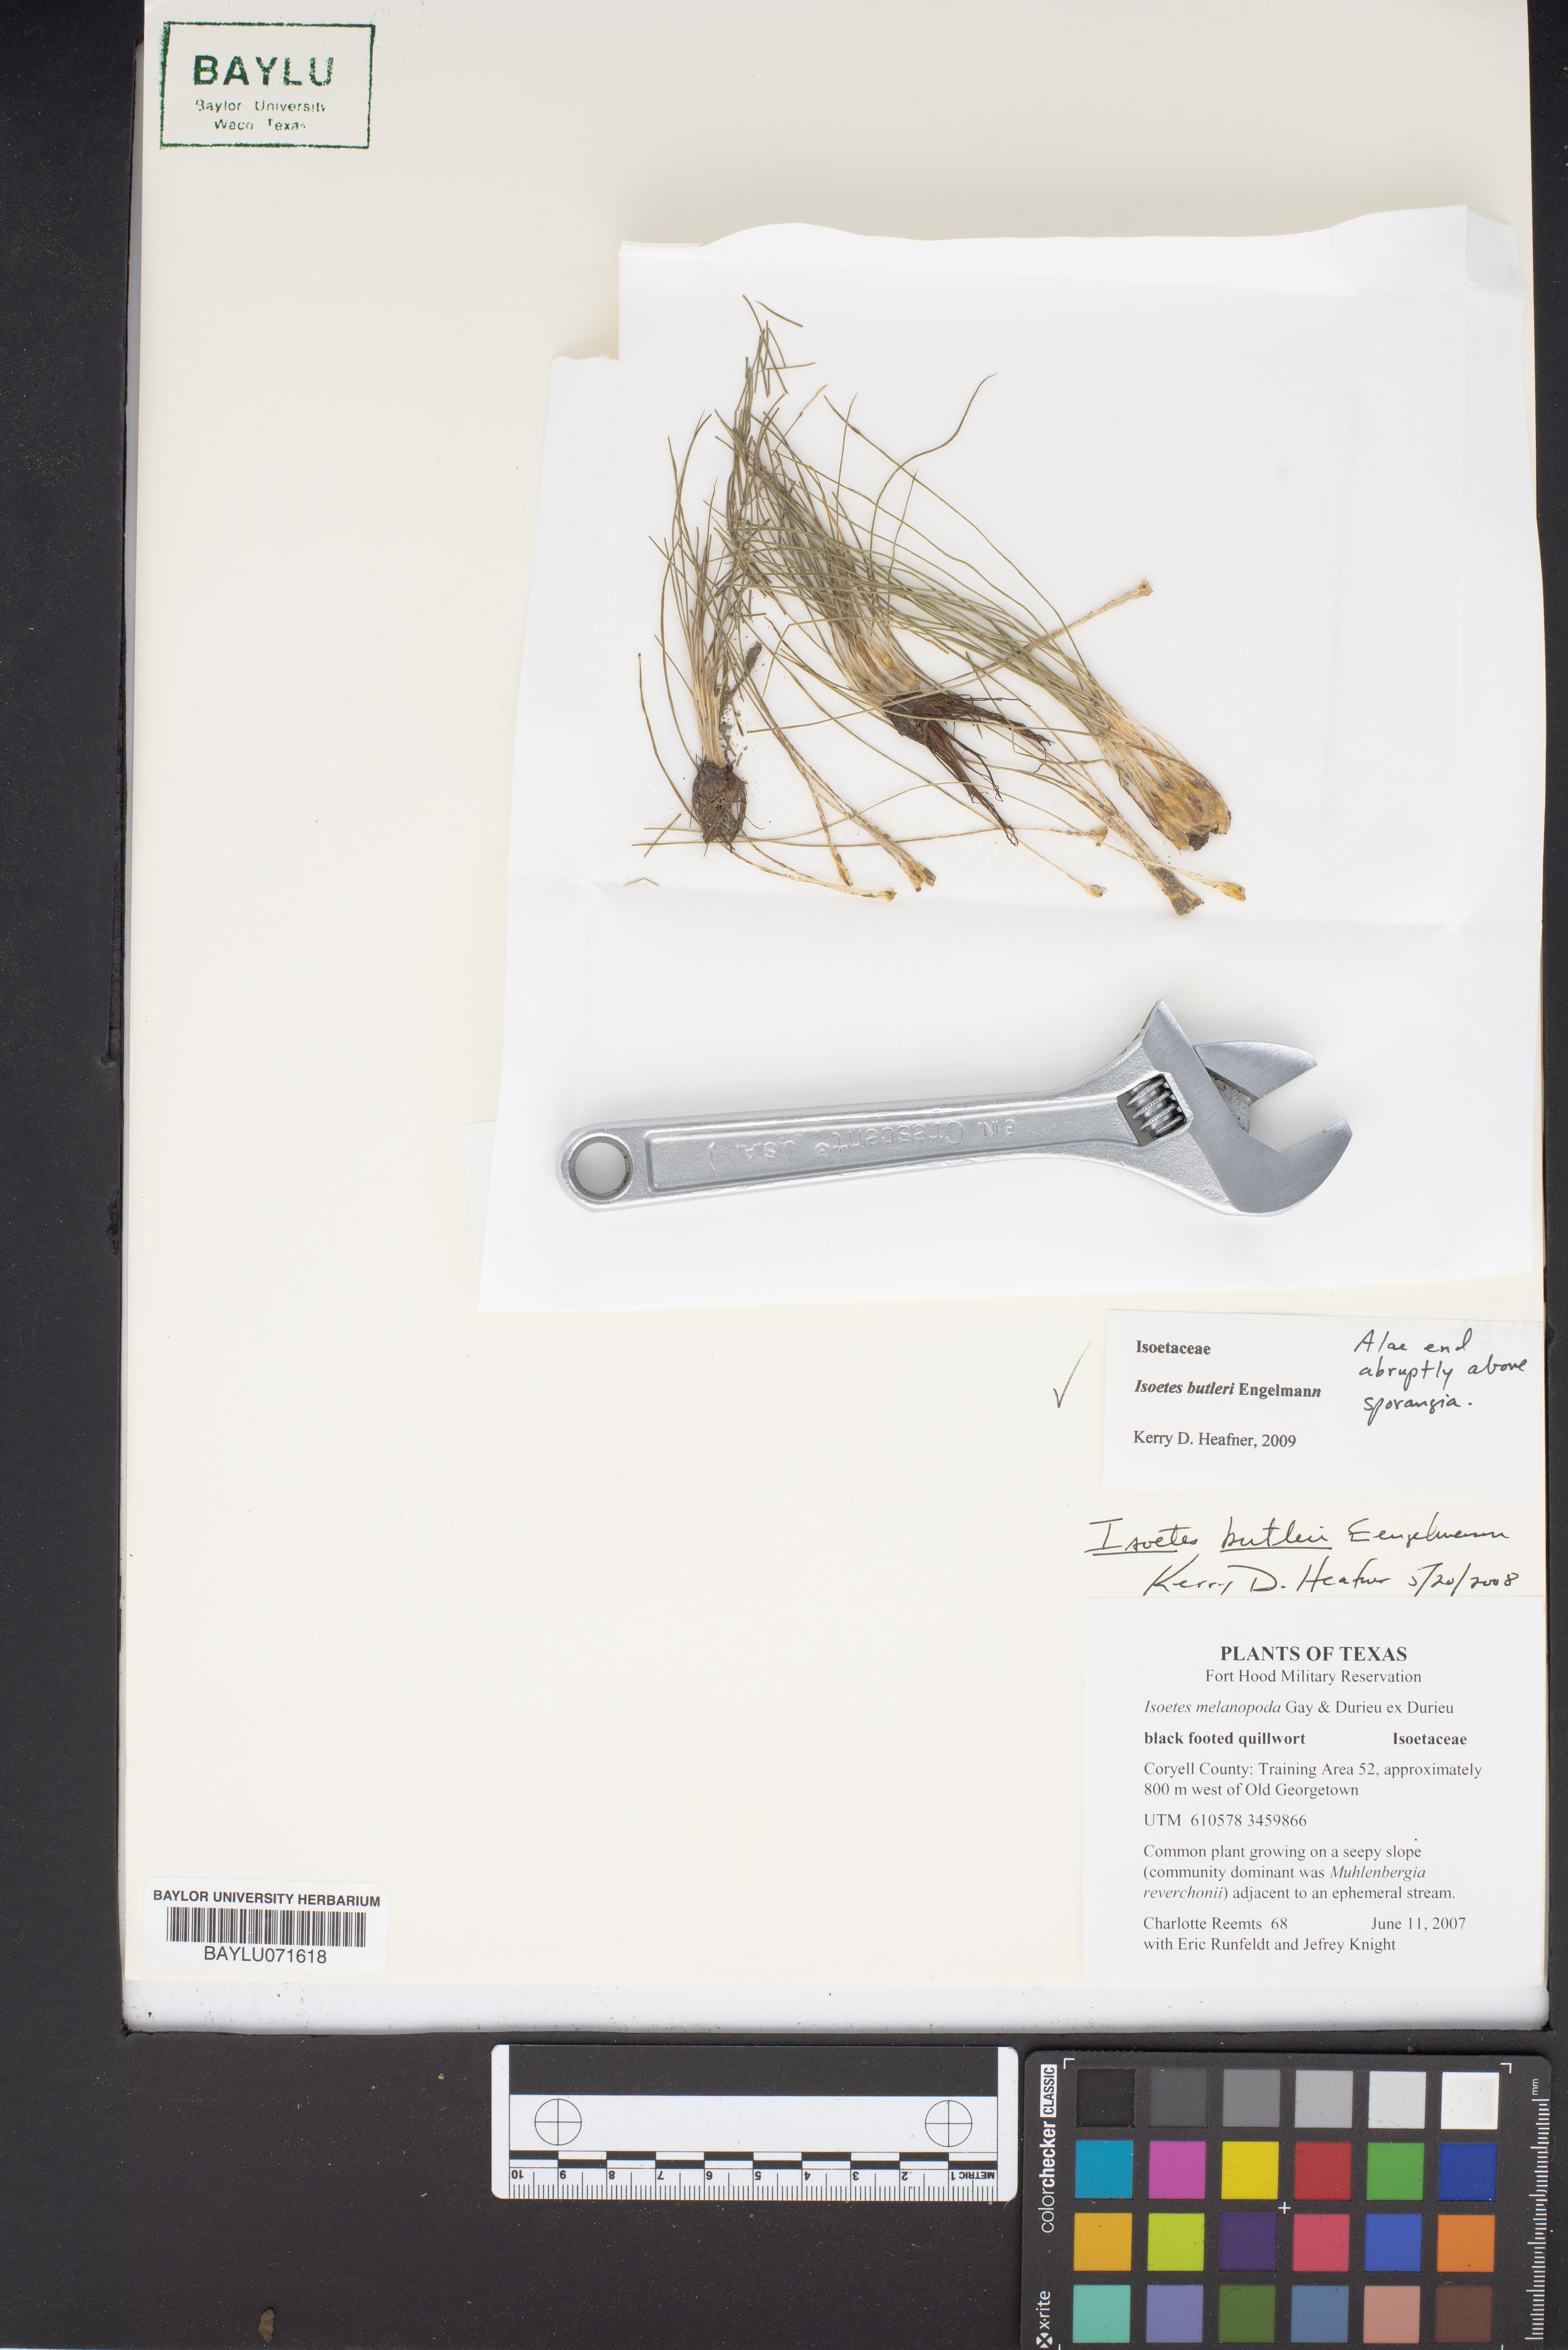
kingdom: Plantae
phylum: Tracheophyta
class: Lycopodiopsida
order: Isoetales
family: Isoetaceae
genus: Isoetes
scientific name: Isoetes butleri
